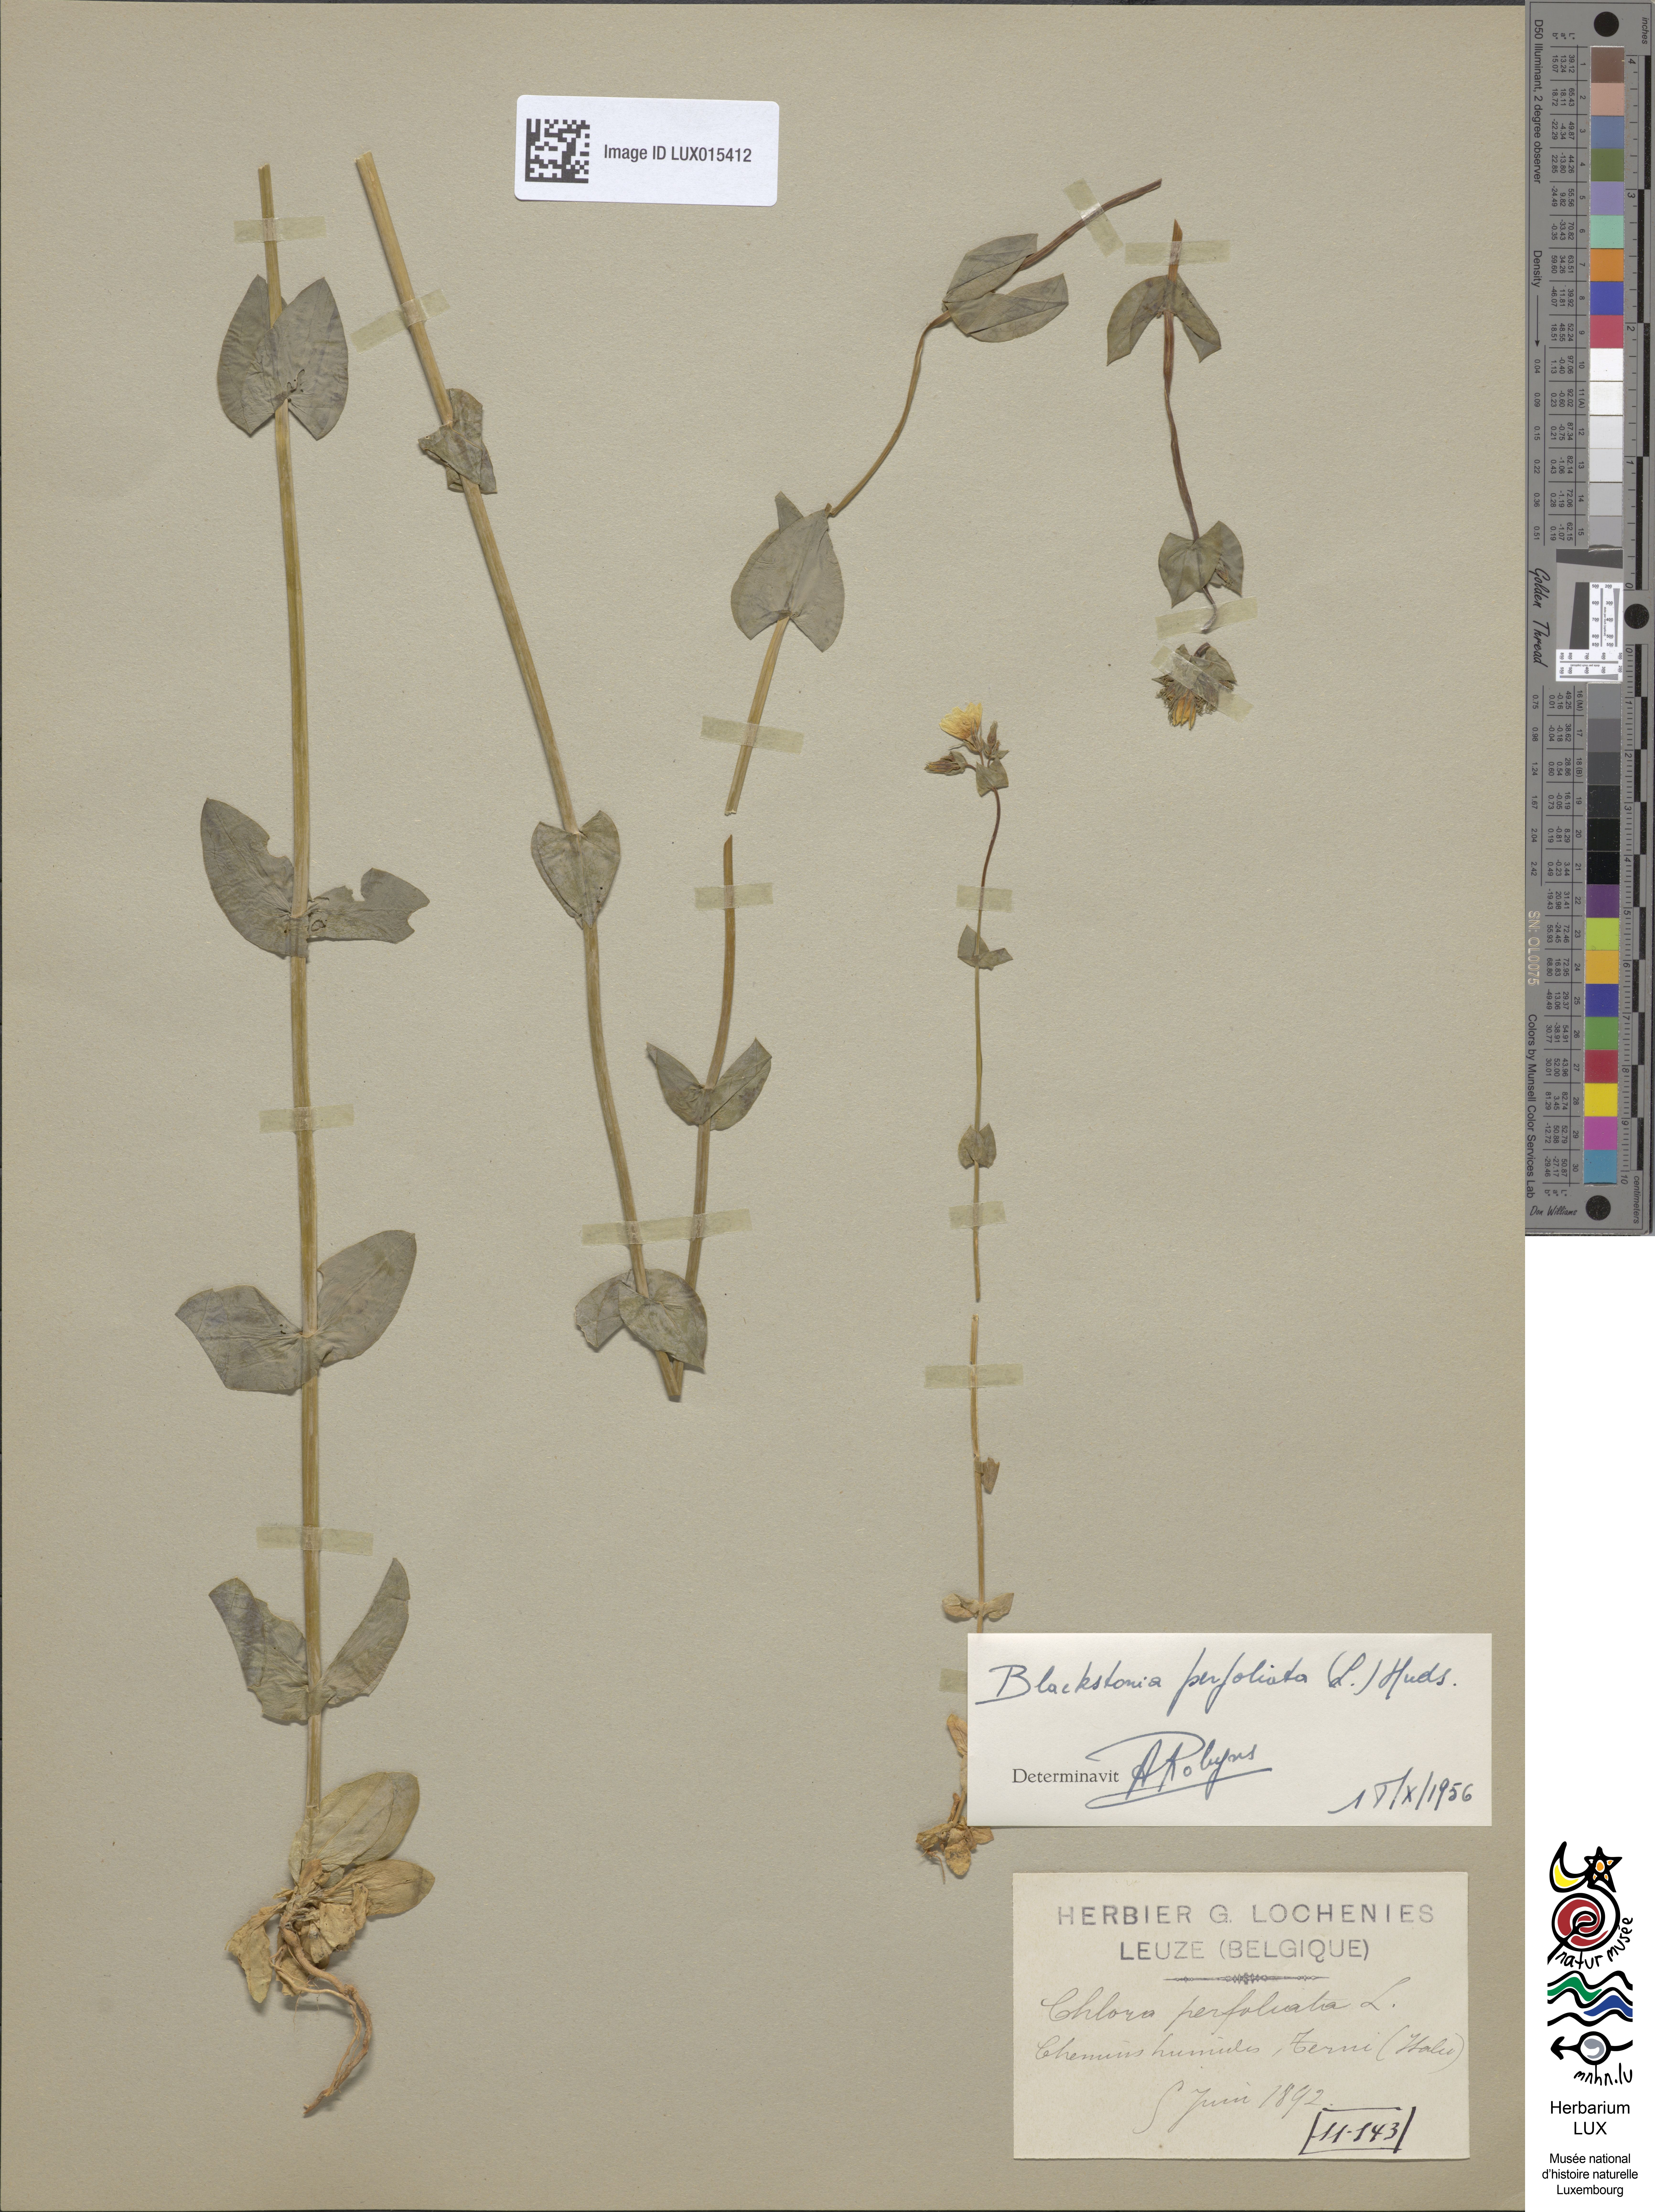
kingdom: Plantae
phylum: Tracheophyta
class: Magnoliopsida
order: Gentianales
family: Gentianaceae
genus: Blackstonia
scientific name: Blackstonia perfoliata
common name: Yellow-wort
